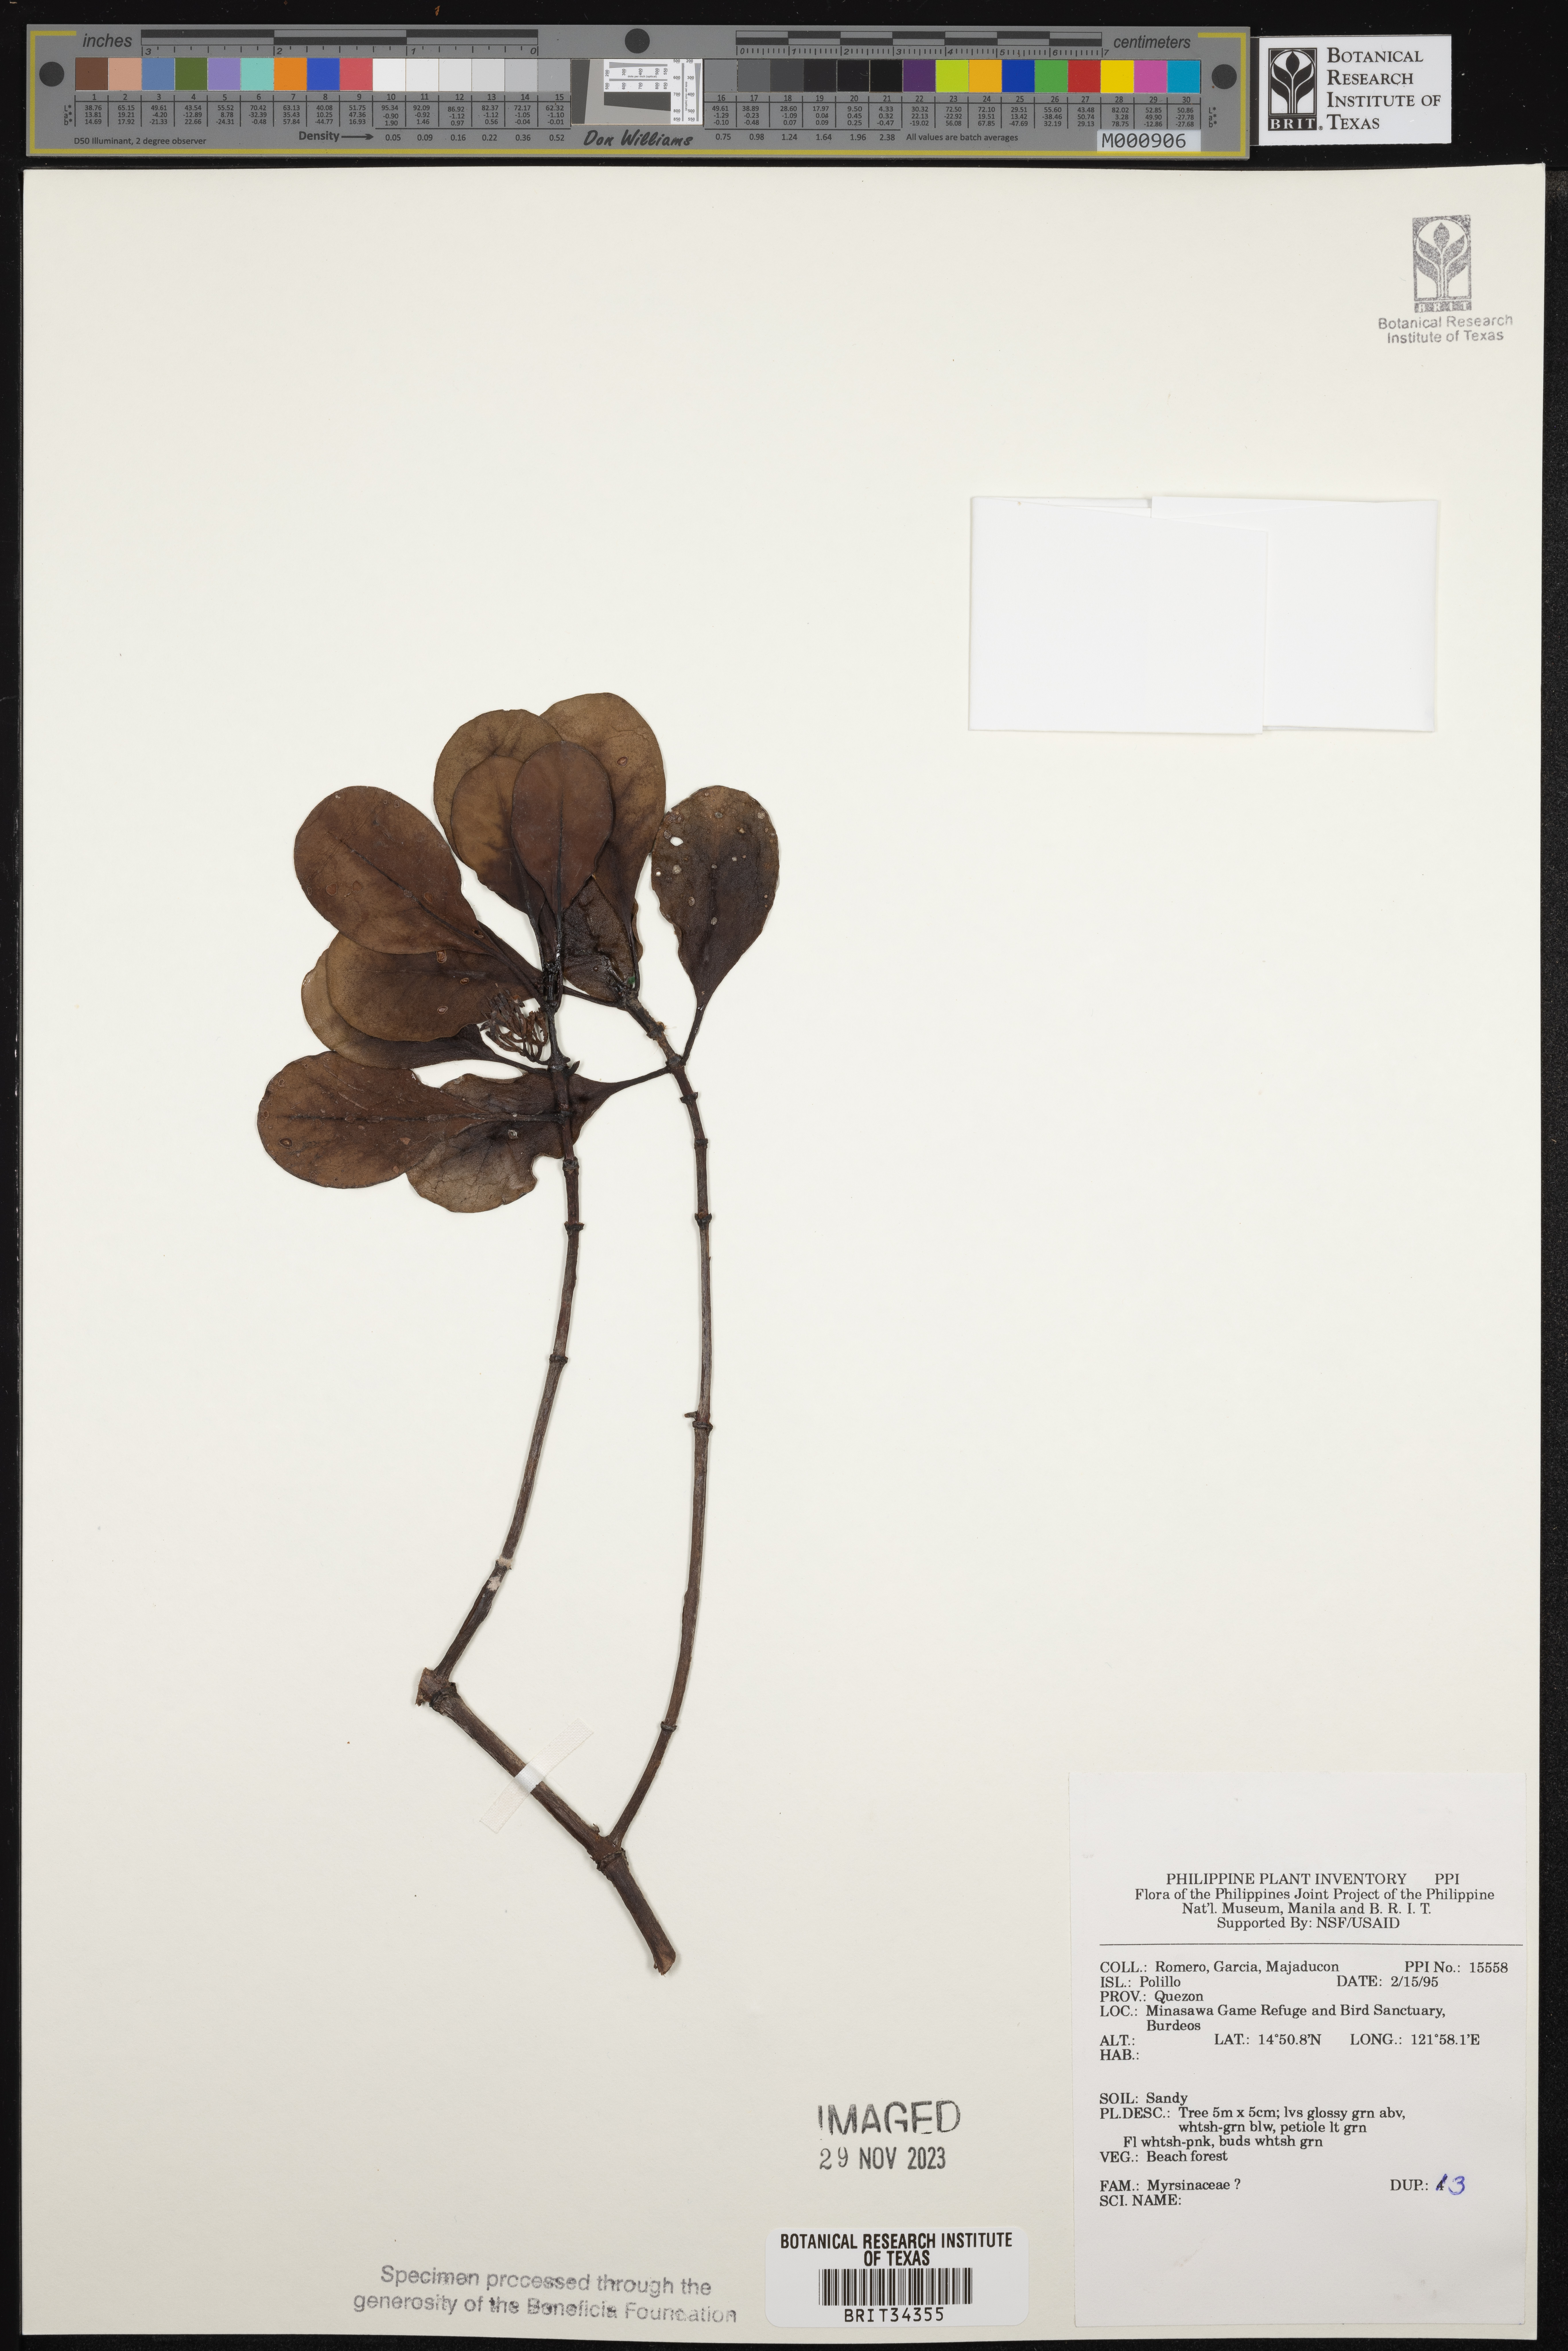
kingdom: Plantae
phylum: Tracheophyta
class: Magnoliopsida
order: Ericales
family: Primulaceae
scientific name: Primulaceae
